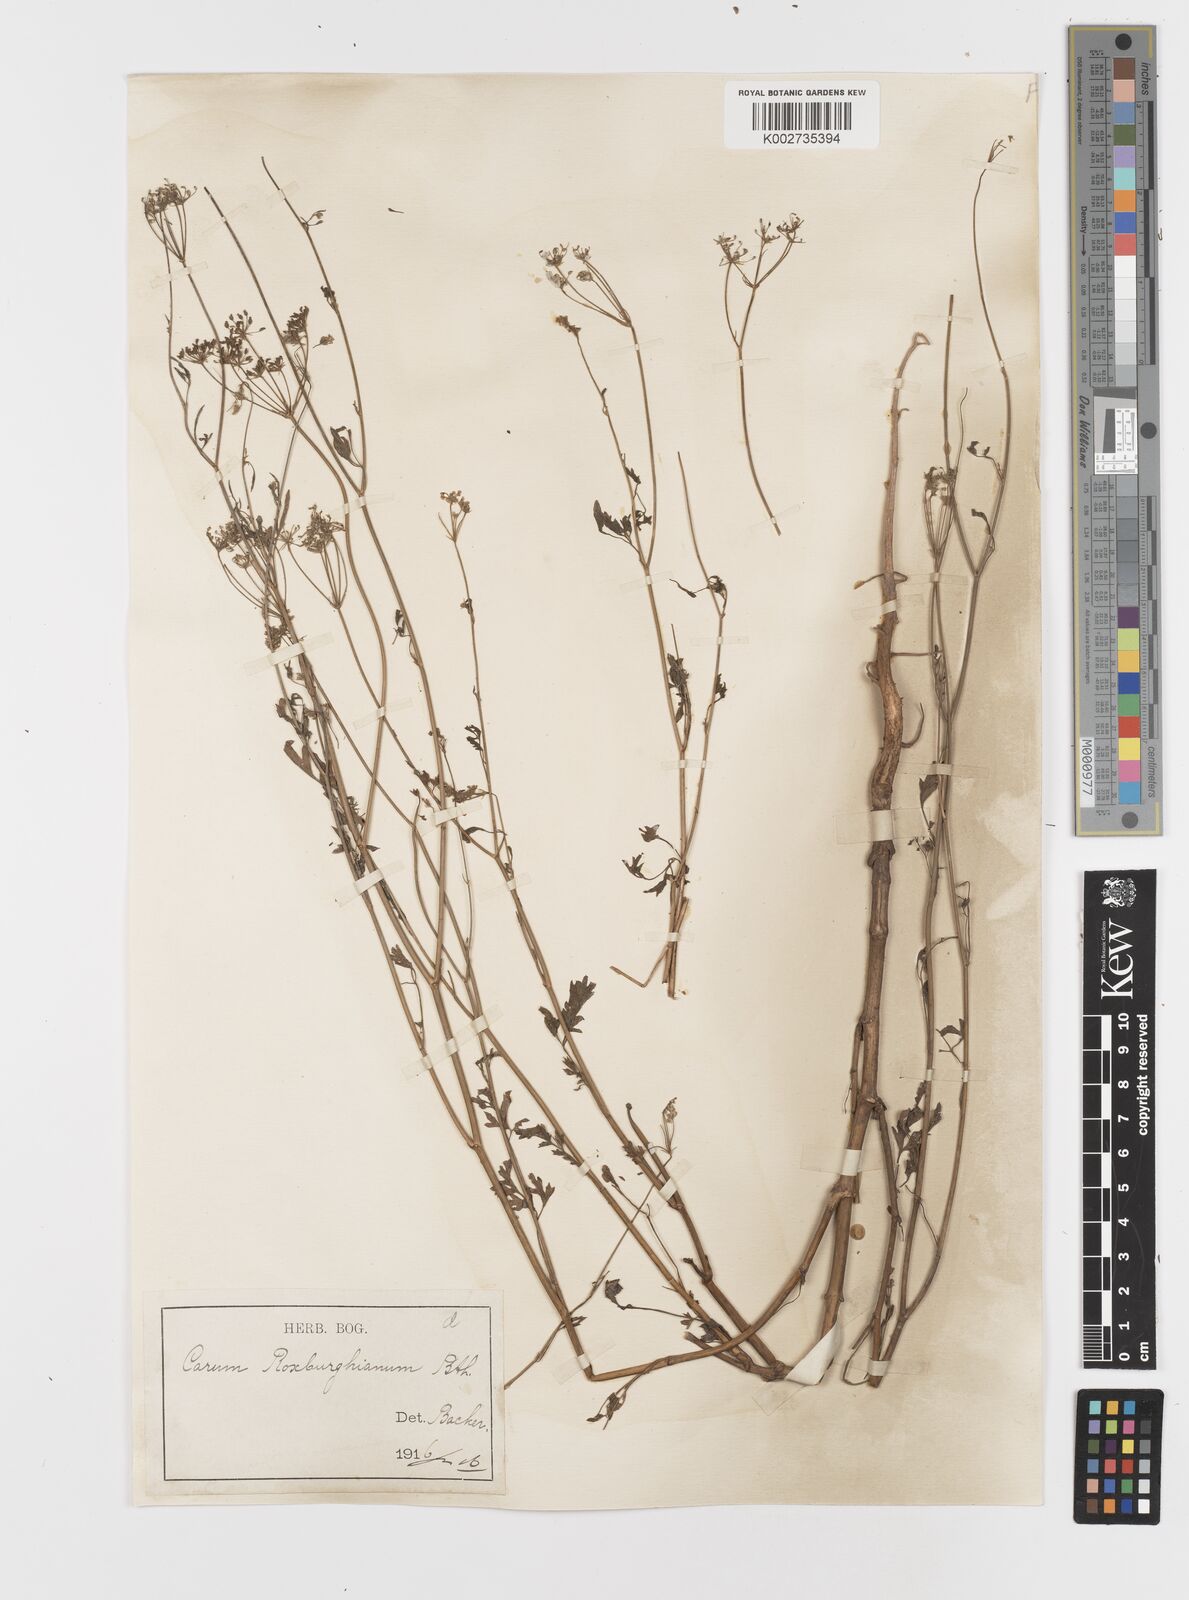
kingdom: Plantae
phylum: Tracheophyta
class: Magnoliopsida
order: Apiales
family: Apiaceae
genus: Psammogeton
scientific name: Psammogeton involucratum
